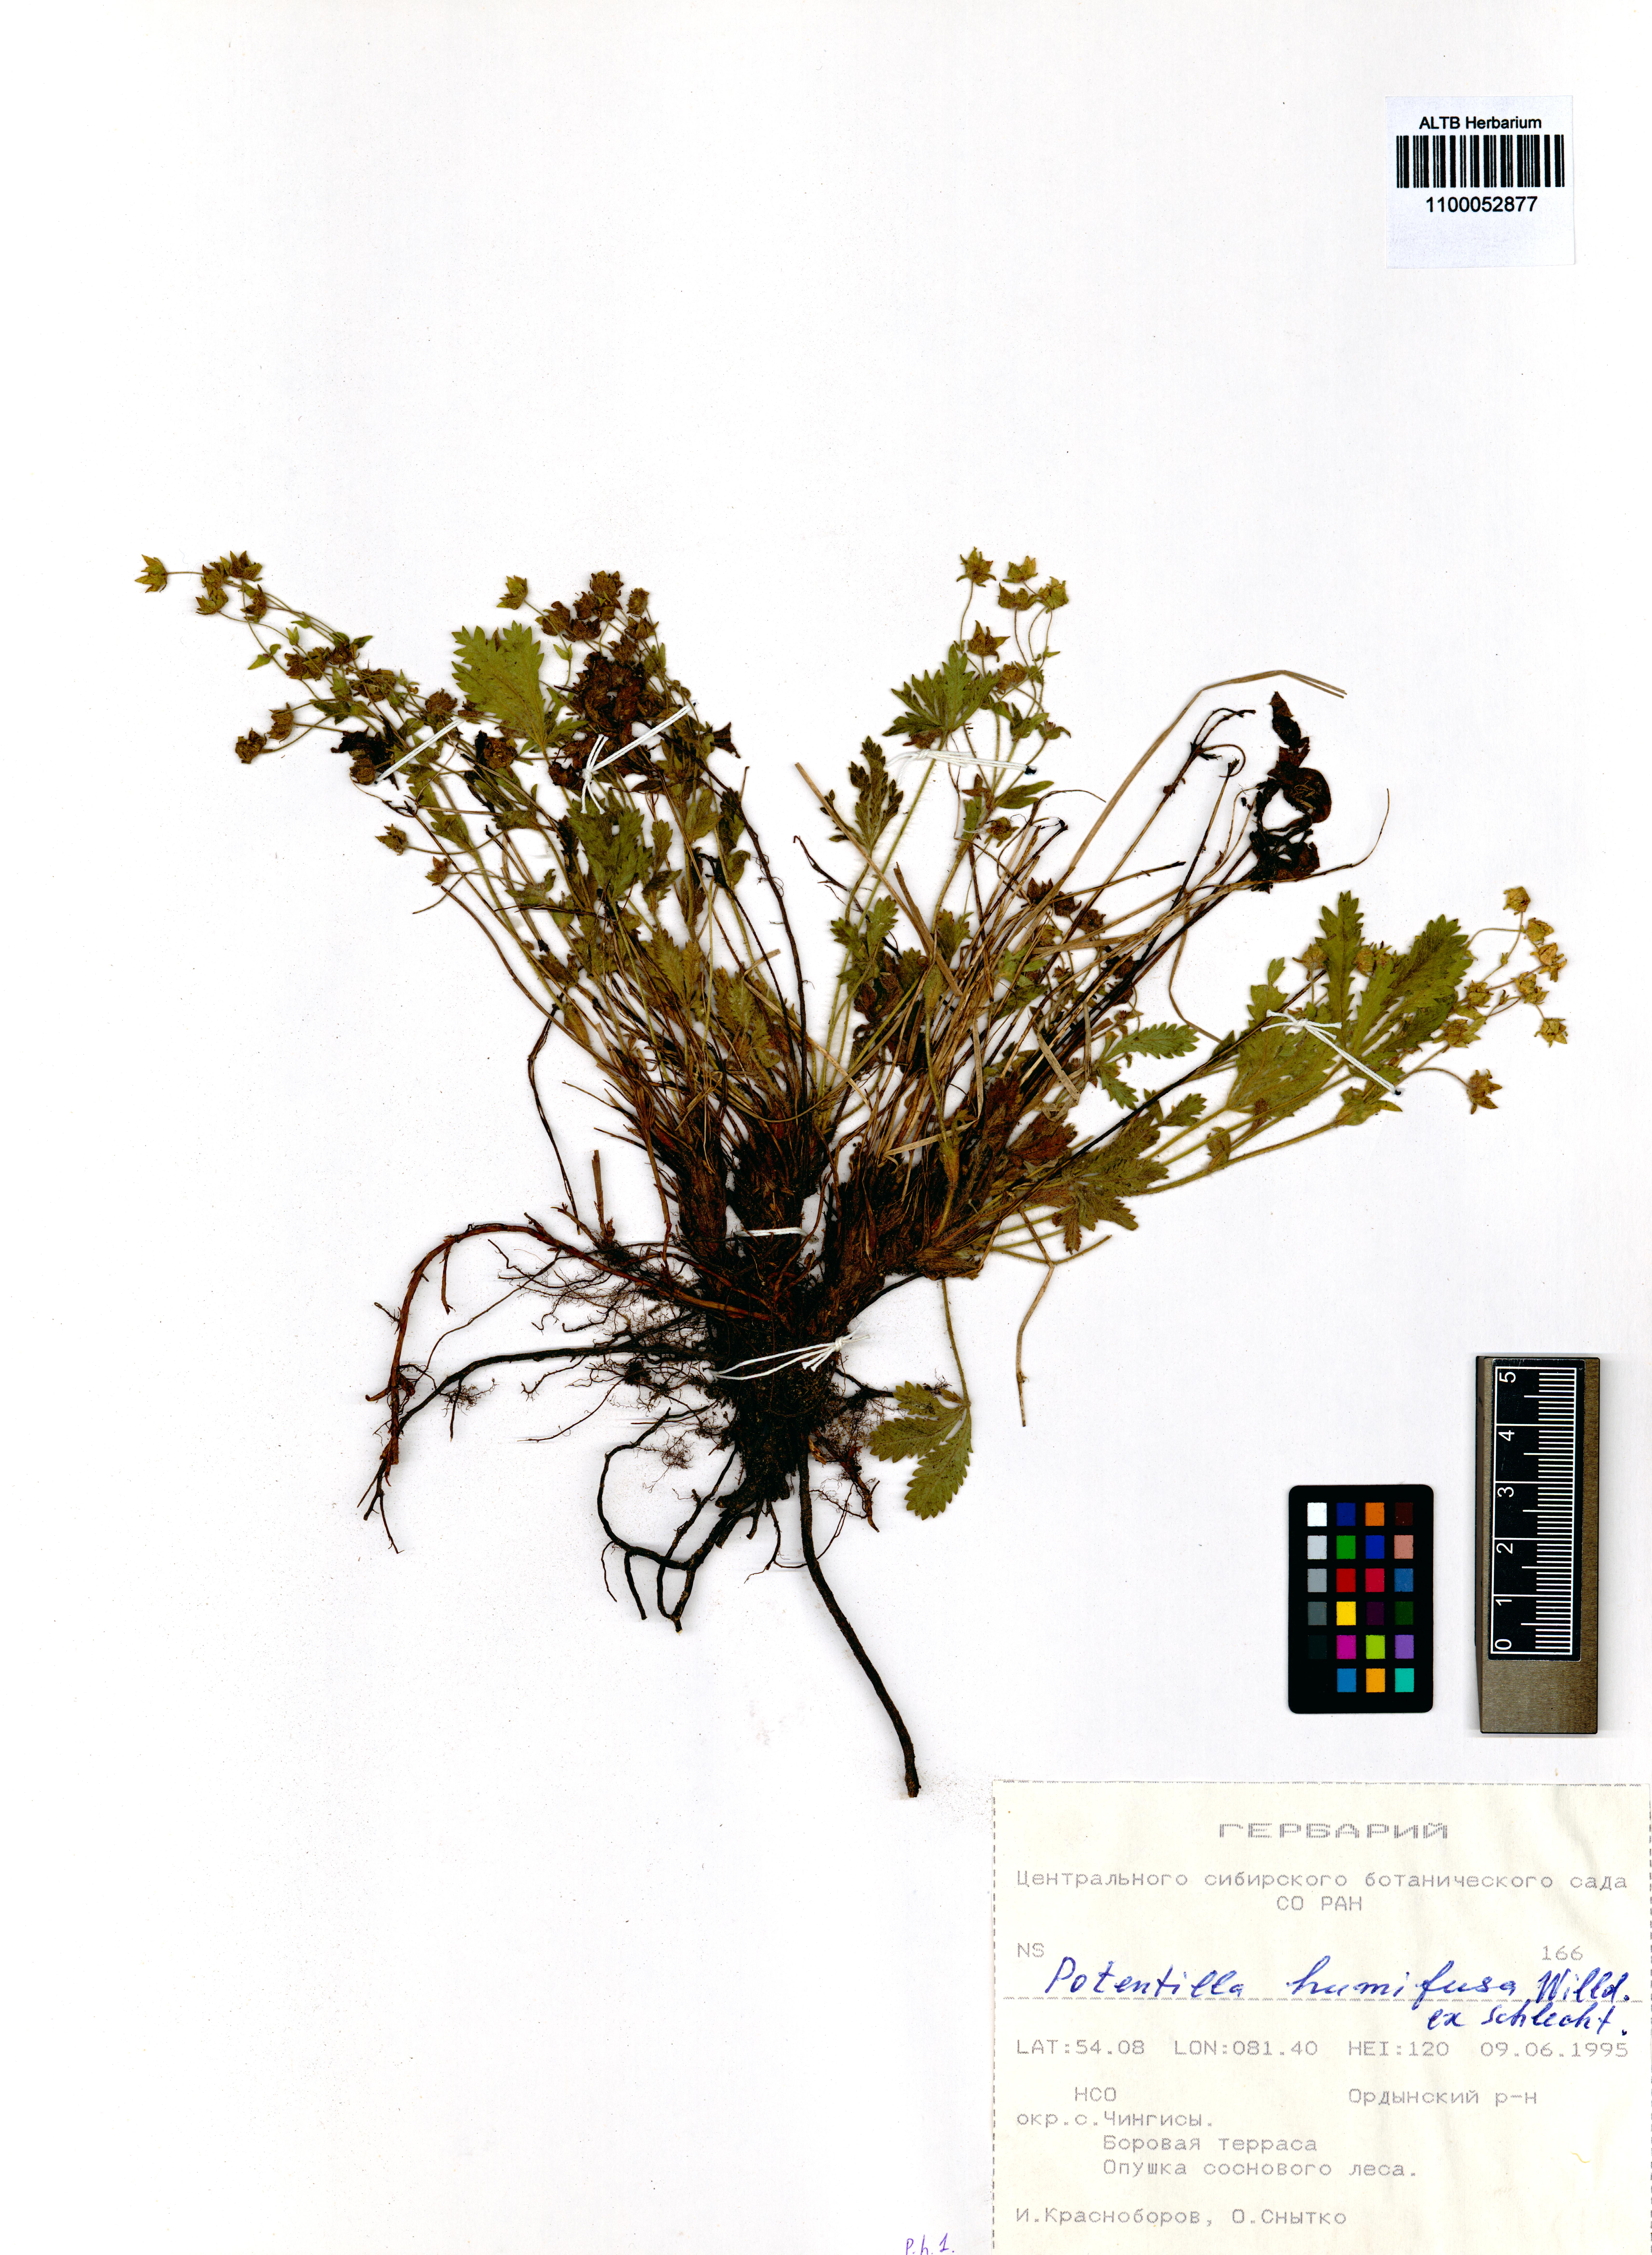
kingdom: Plantae
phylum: Tracheophyta
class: Magnoliopsida
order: Rosales
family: Rosaceae
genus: Potentilla
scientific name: Potentilla humifusa
